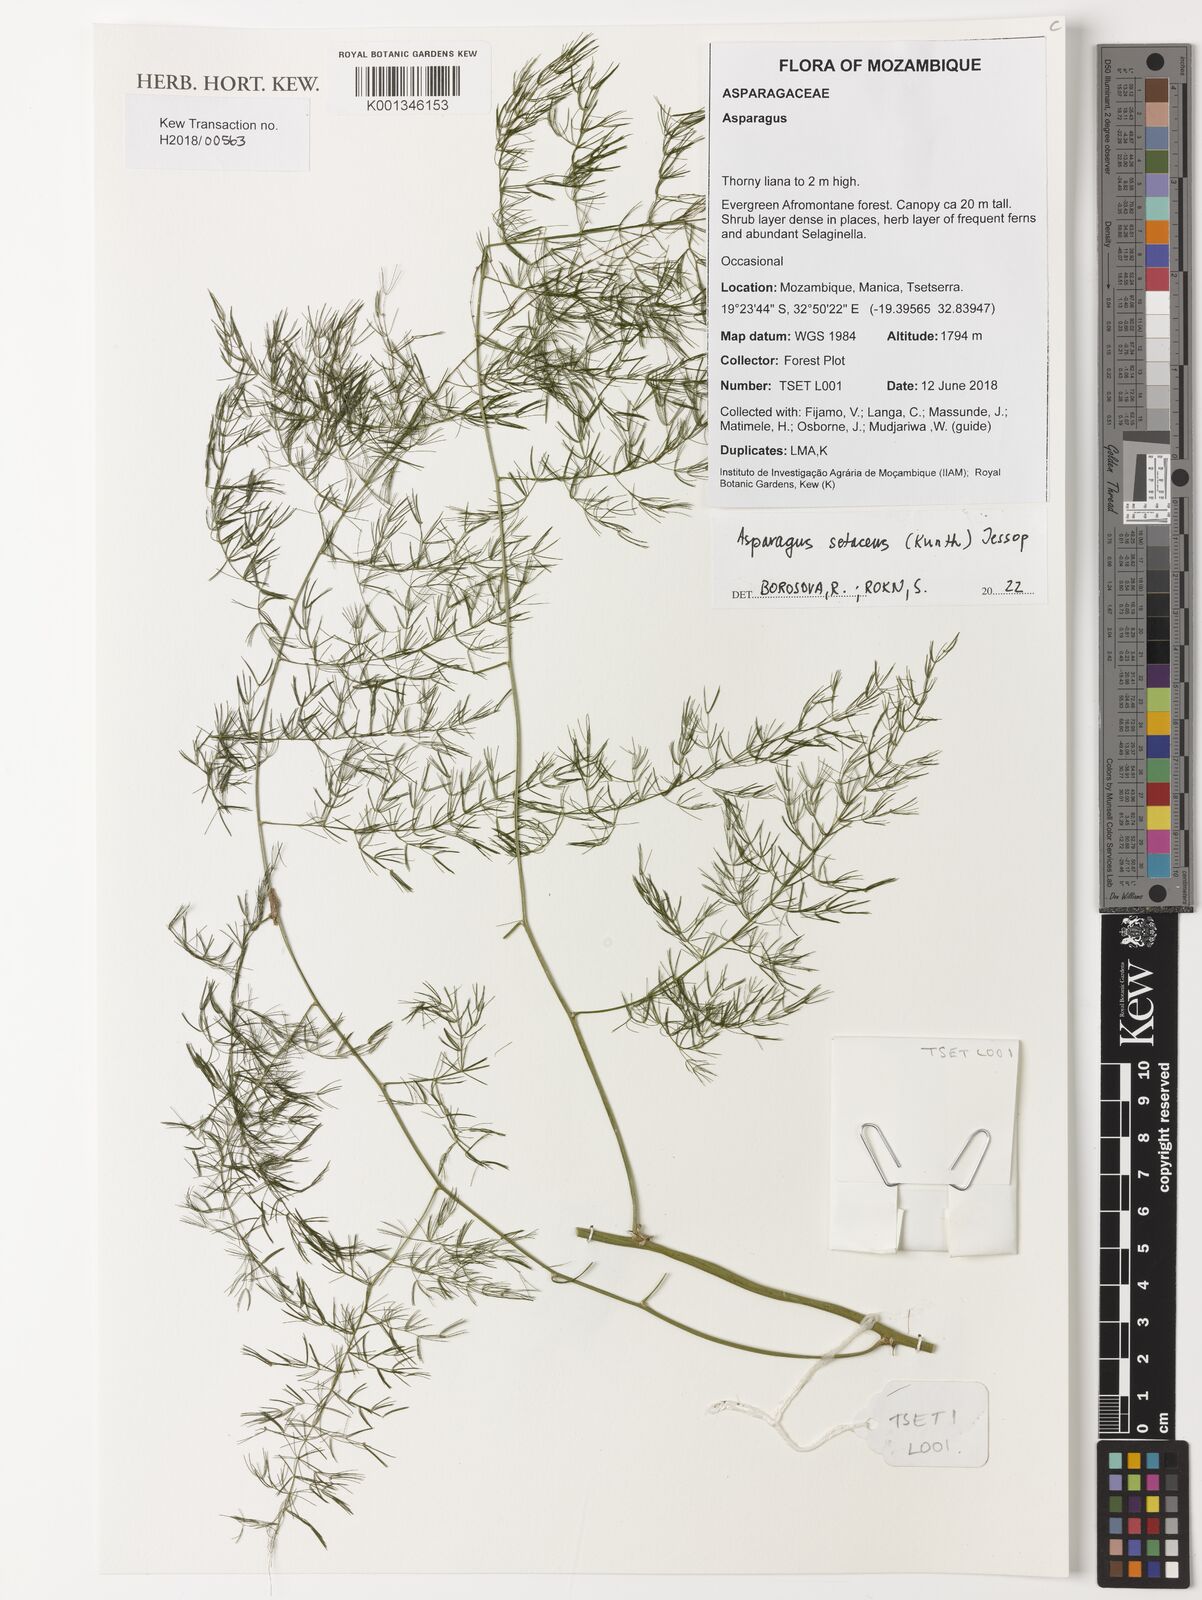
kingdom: Plantae
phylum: Tracheophyta
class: Liliopsida
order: Asparagales
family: Asparagaceae
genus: Asparagus
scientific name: Asparagus setaceus
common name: Common asparagus fern
